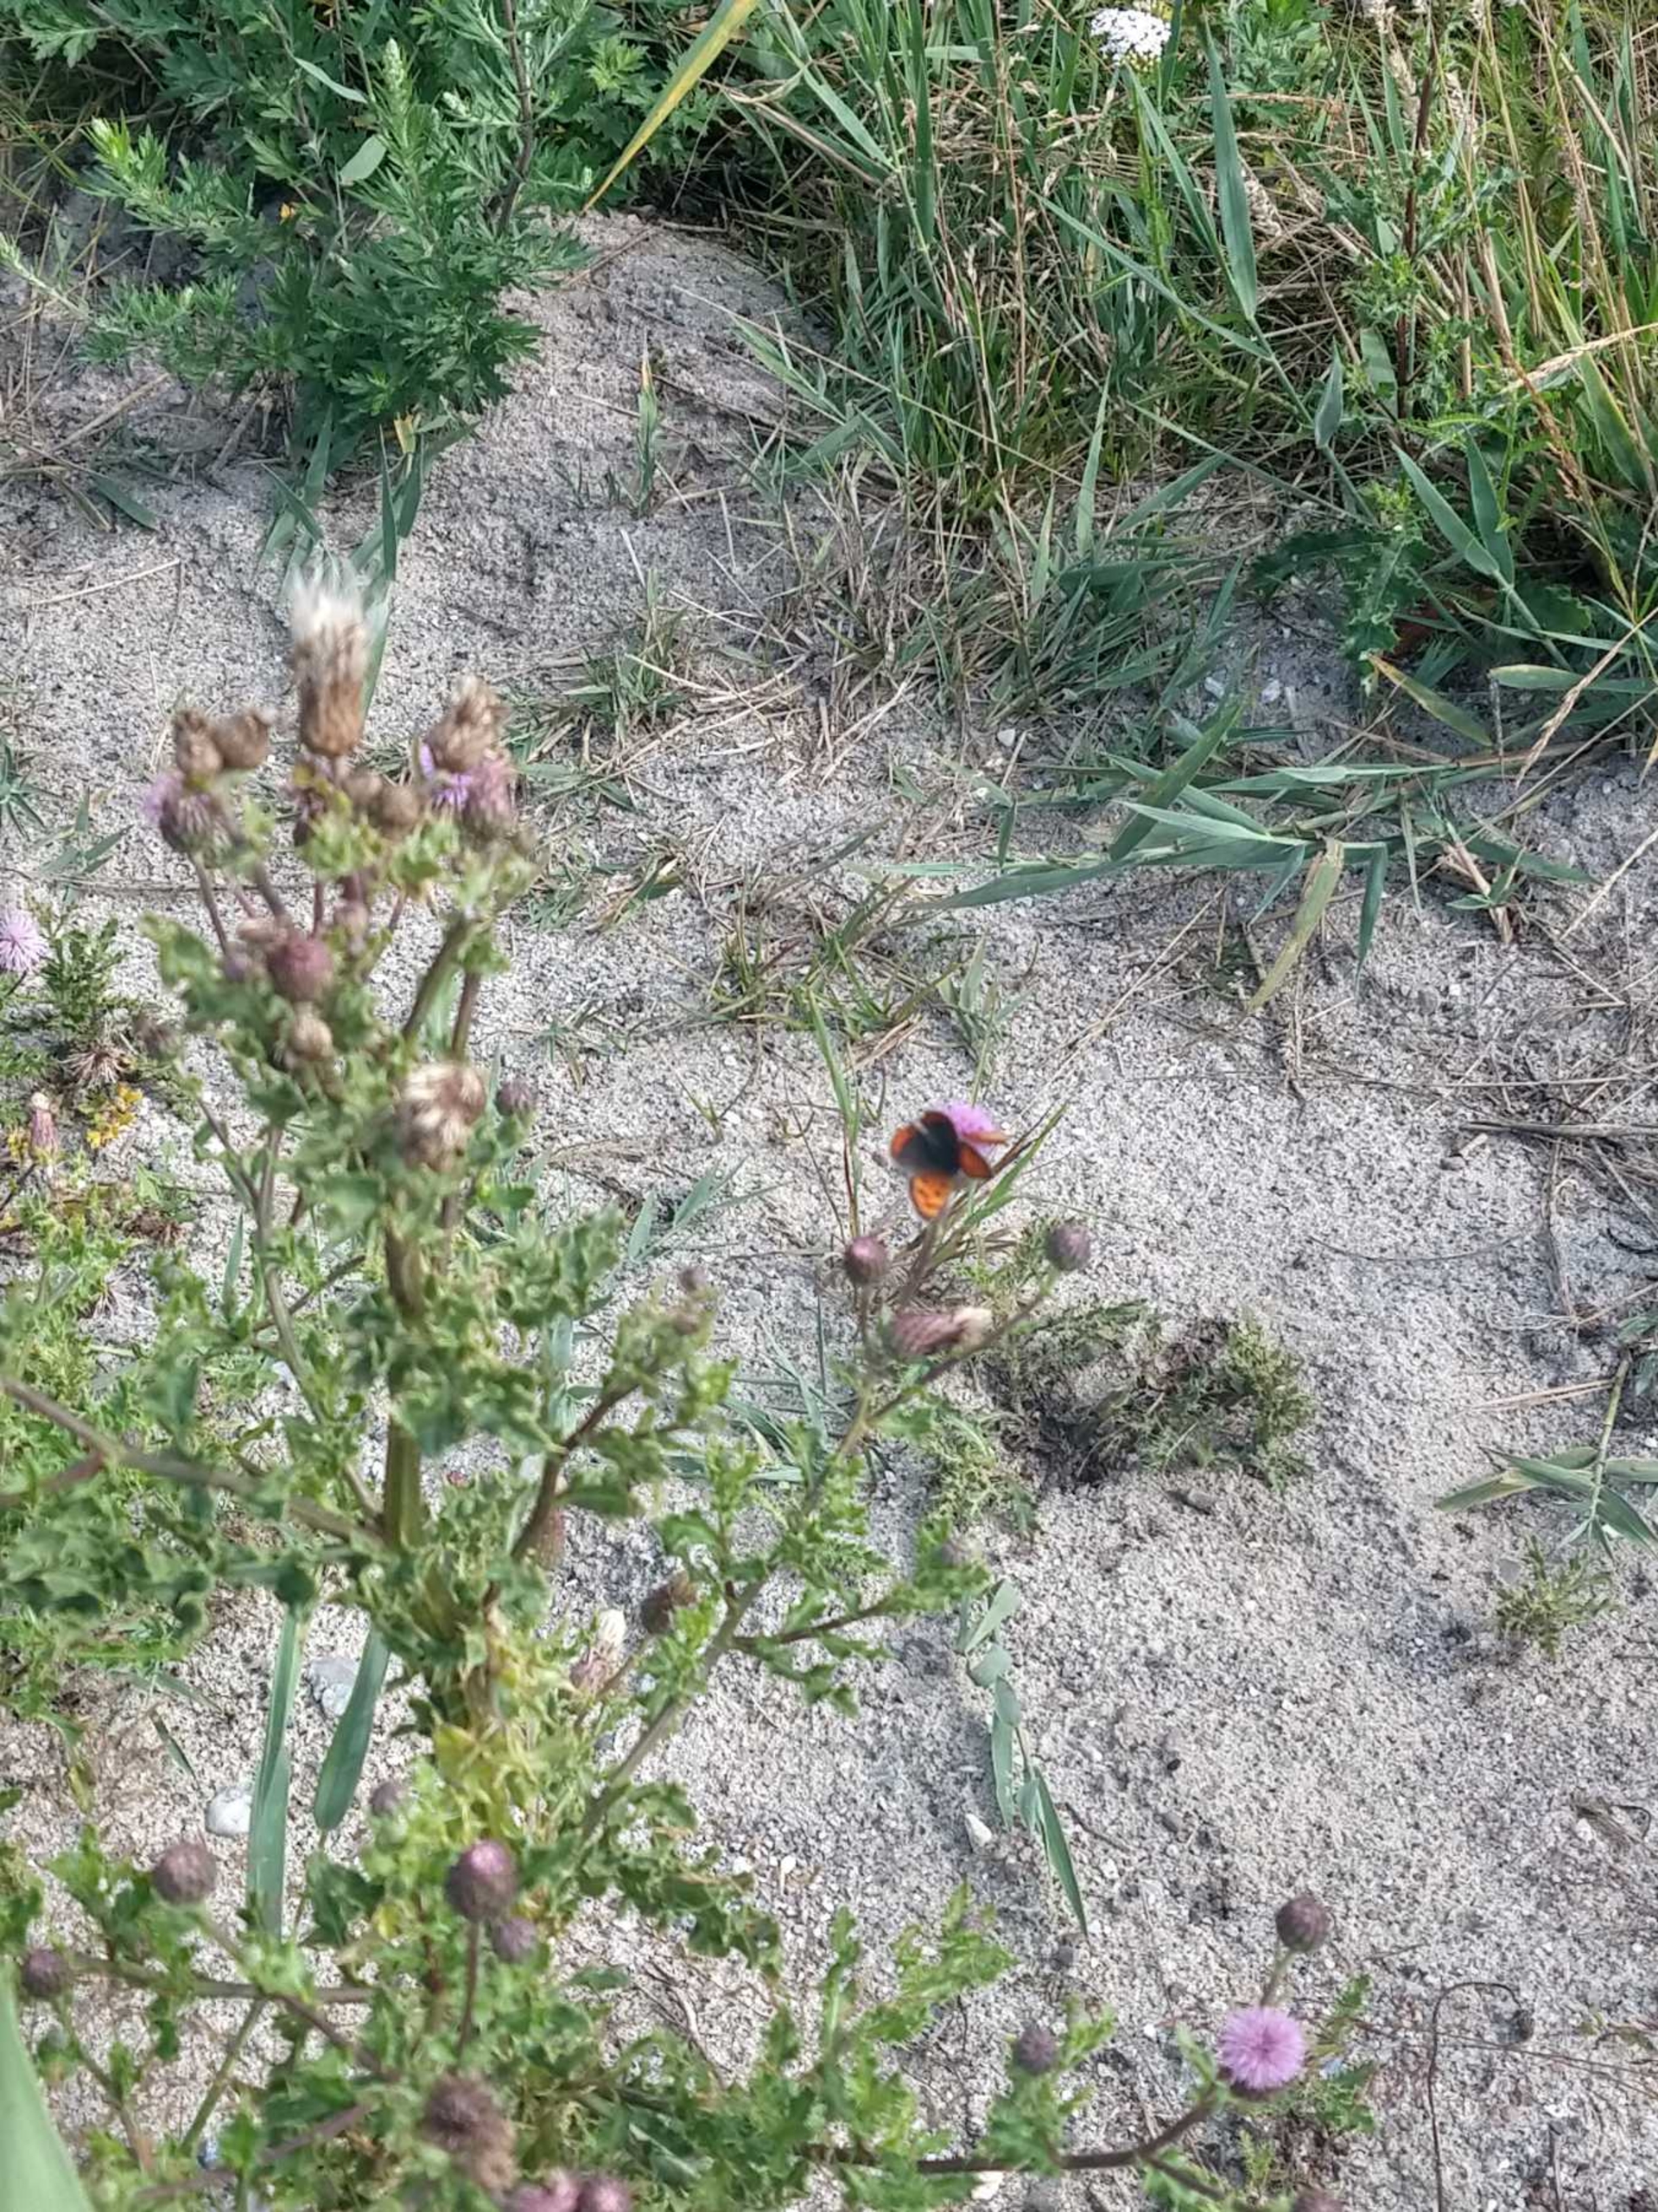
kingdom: Animalia
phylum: Arthropoda
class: Insecta
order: Lepidoptera
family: Lycaenidae
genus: Lycaena
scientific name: Lycaena phlaeas
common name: Lille ildfugl
